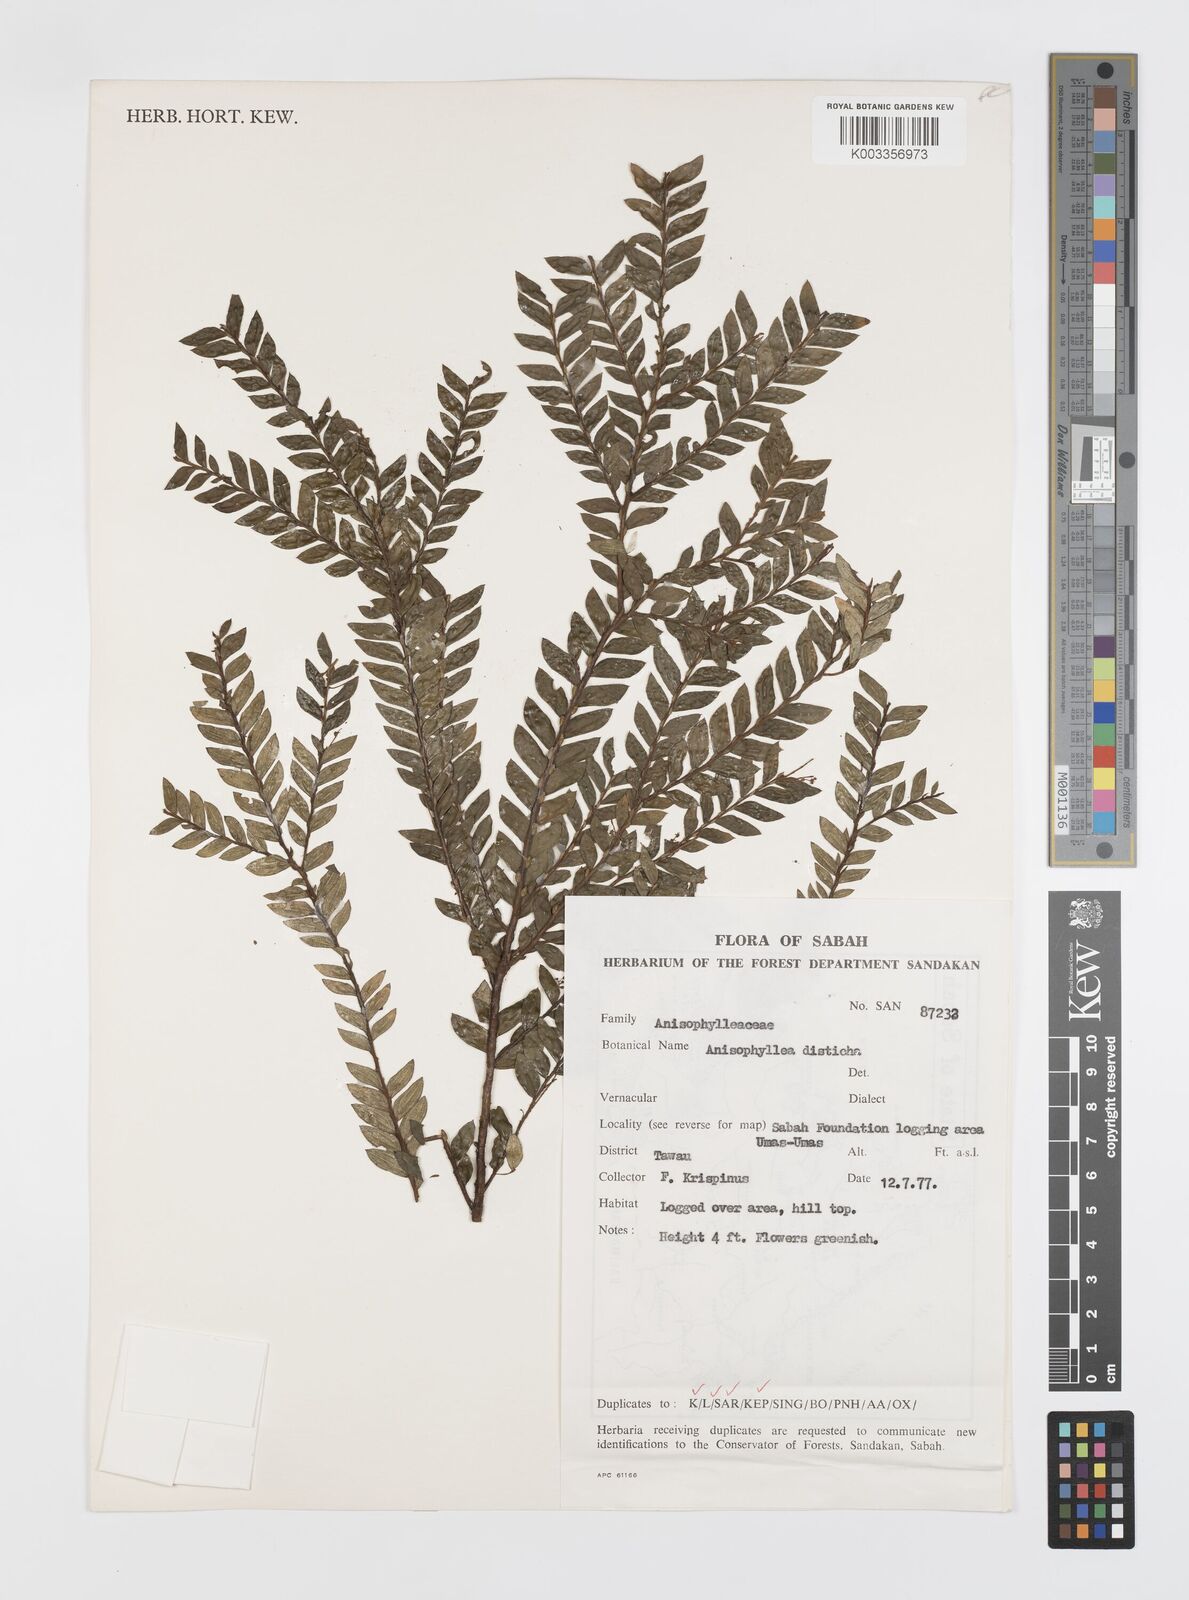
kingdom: Plantae
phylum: Tracheophyta
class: Magnoliopsida
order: Cucurbitales
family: Anisophylleaceae
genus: Anisophyllea
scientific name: Anisophyllea disticha
